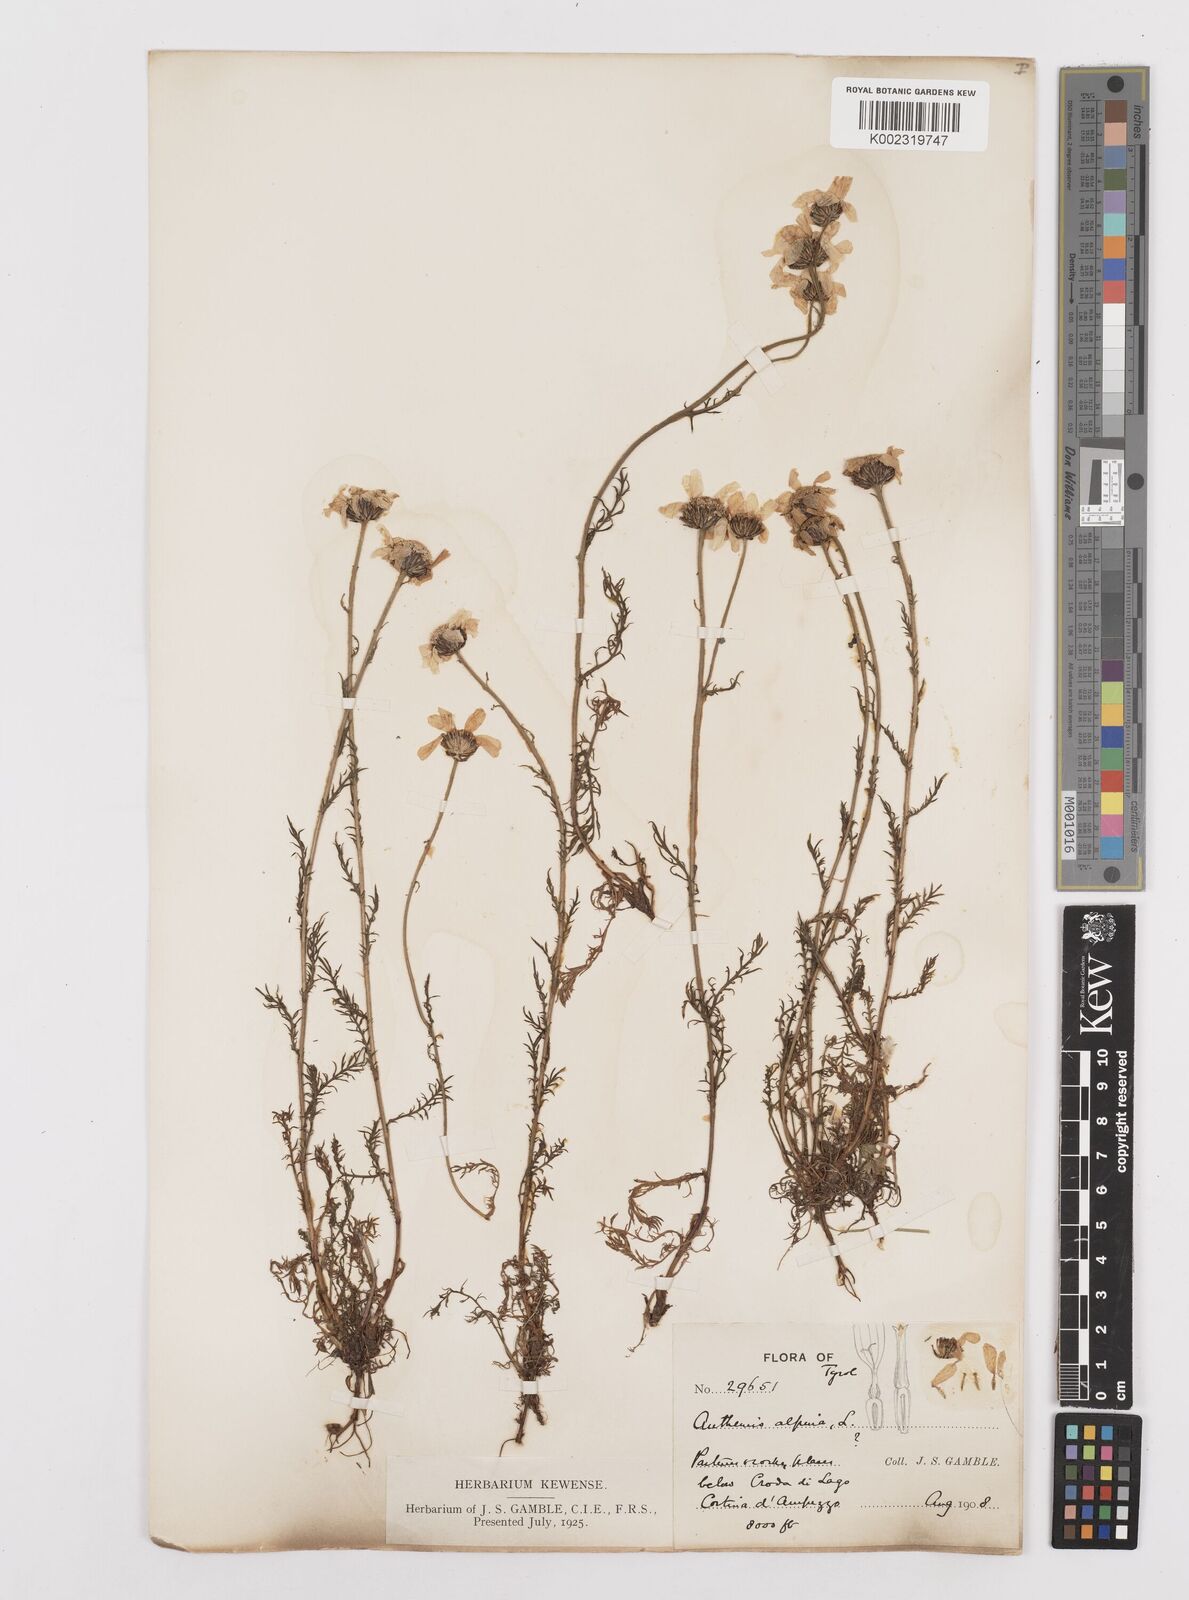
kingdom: Plantae
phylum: Tracheophyta
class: Magnoliopsida
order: Asterales
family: Asteraceae
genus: Achillea
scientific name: Achillea oxyloba
